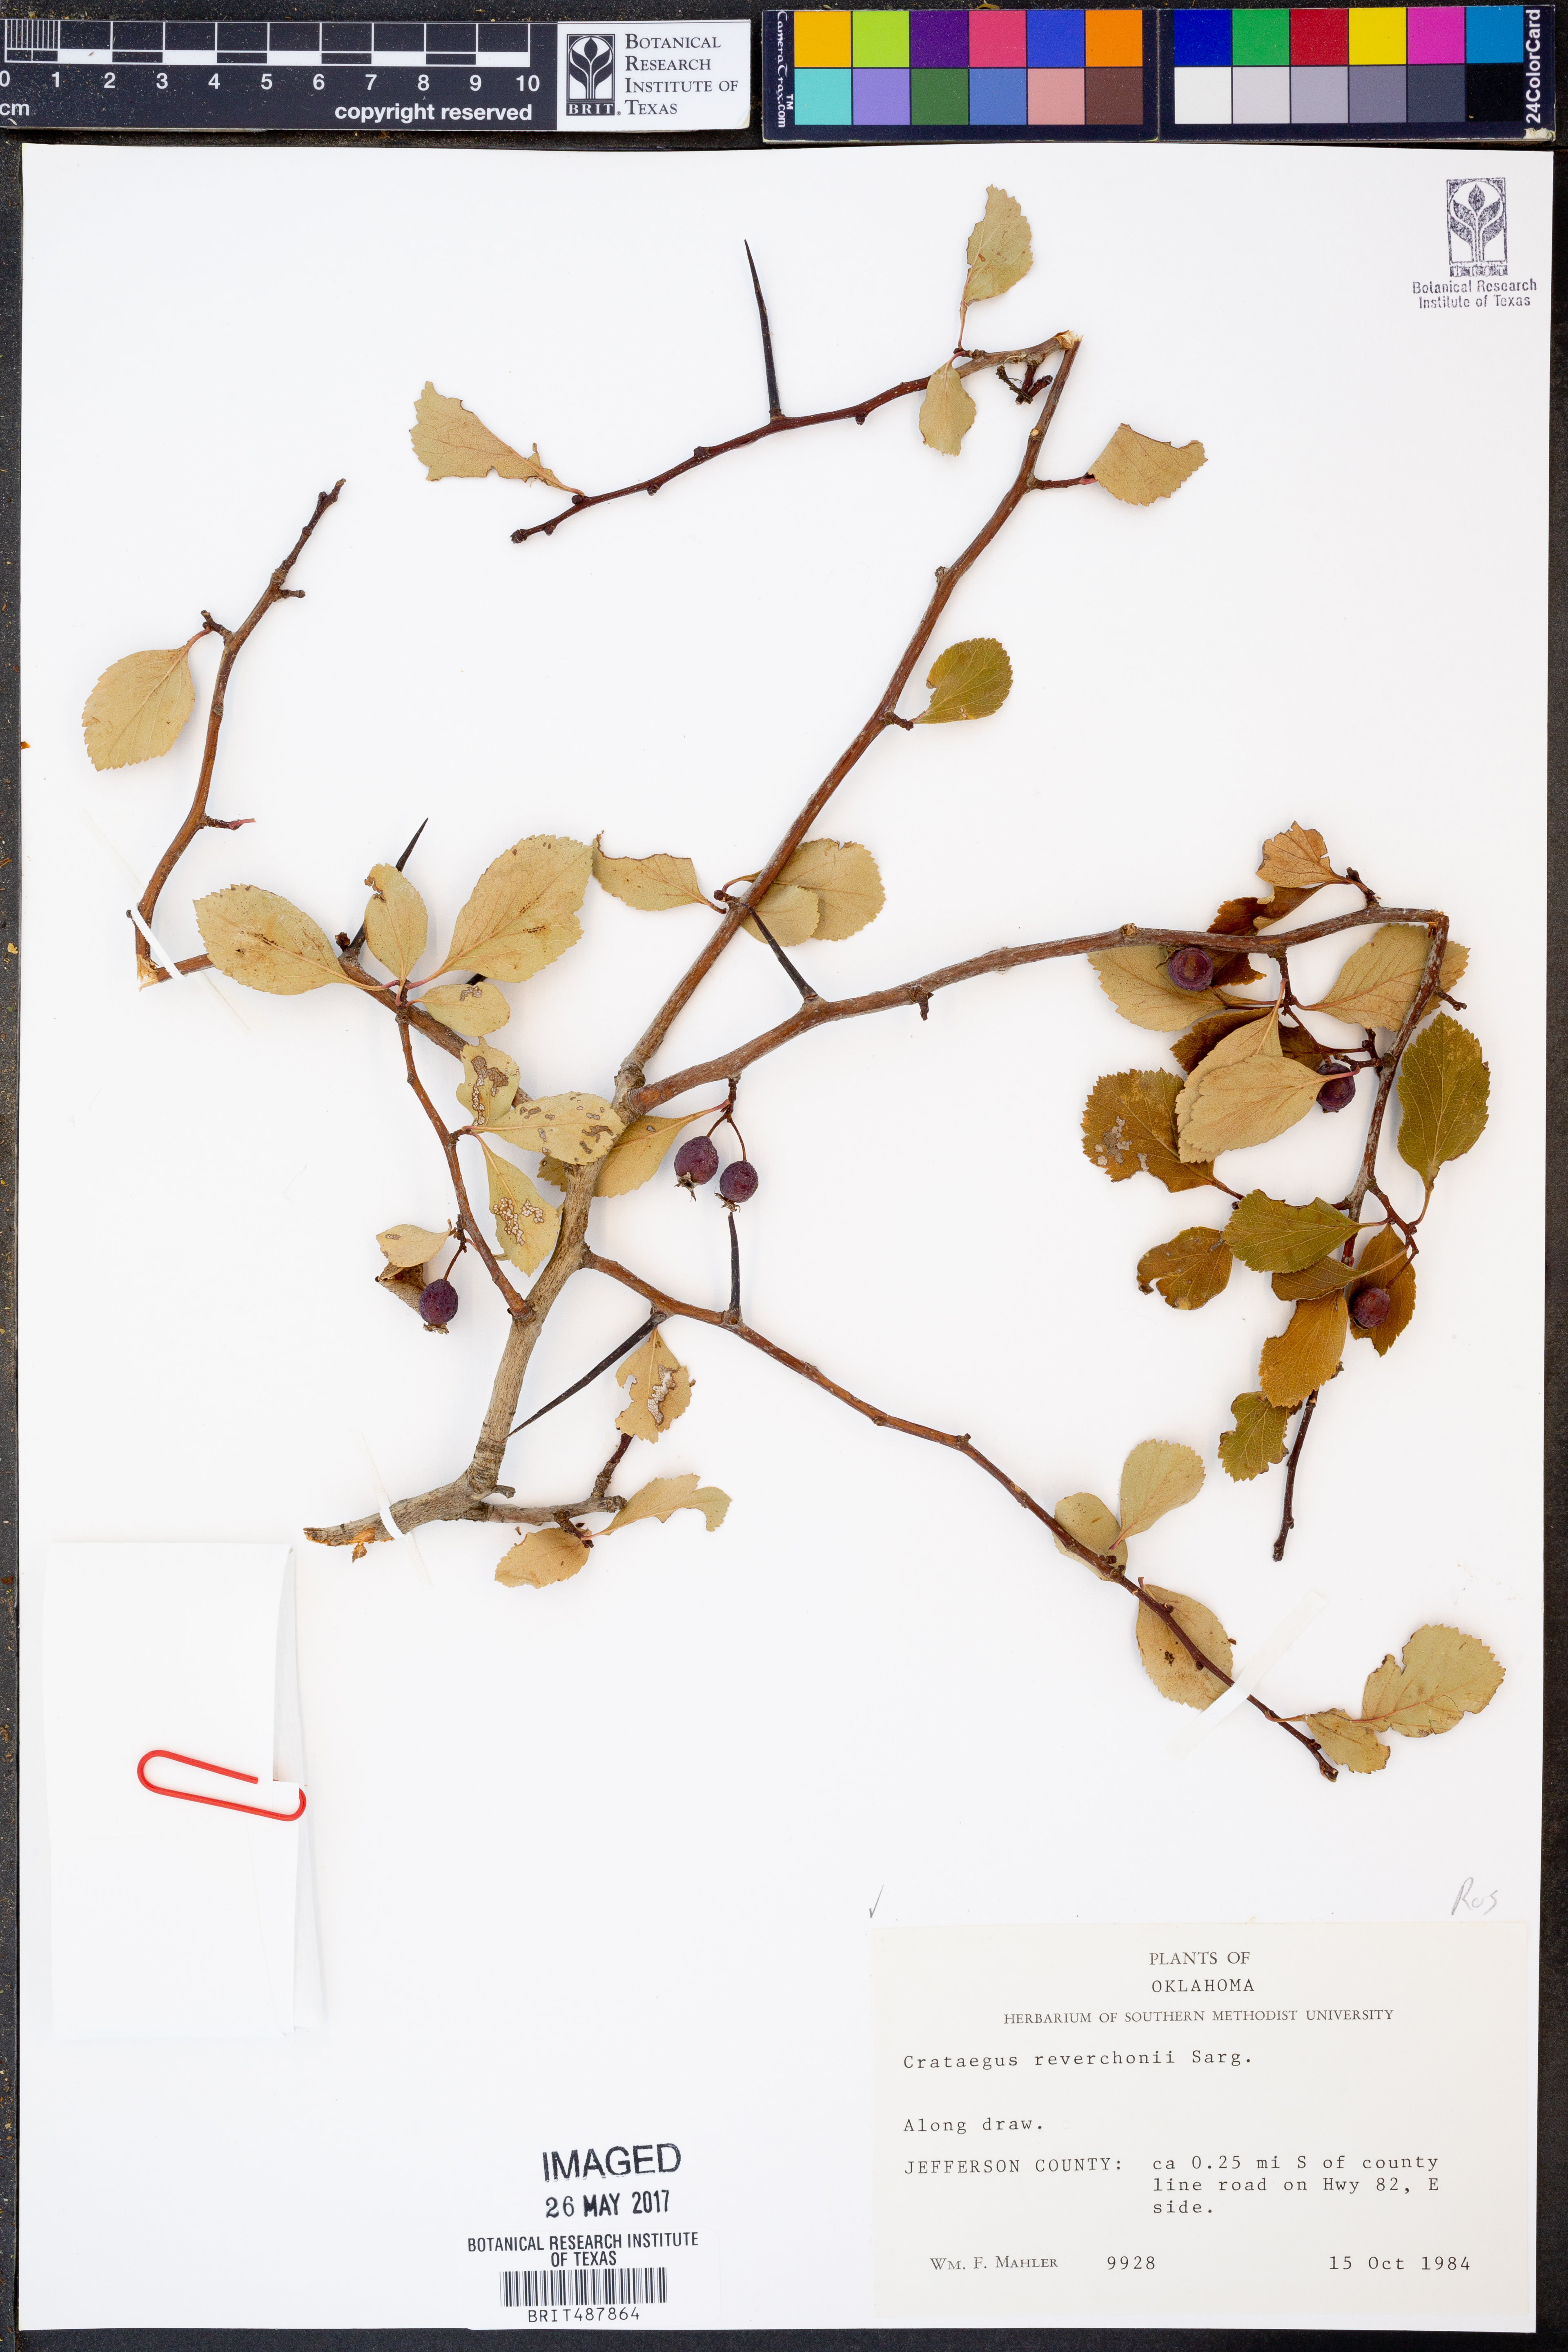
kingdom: Plantae
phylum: Tracheophyta
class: Magnoliopsida
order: Rosales
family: Rosaceae
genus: Crataegus
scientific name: Crataegus reverchonii
